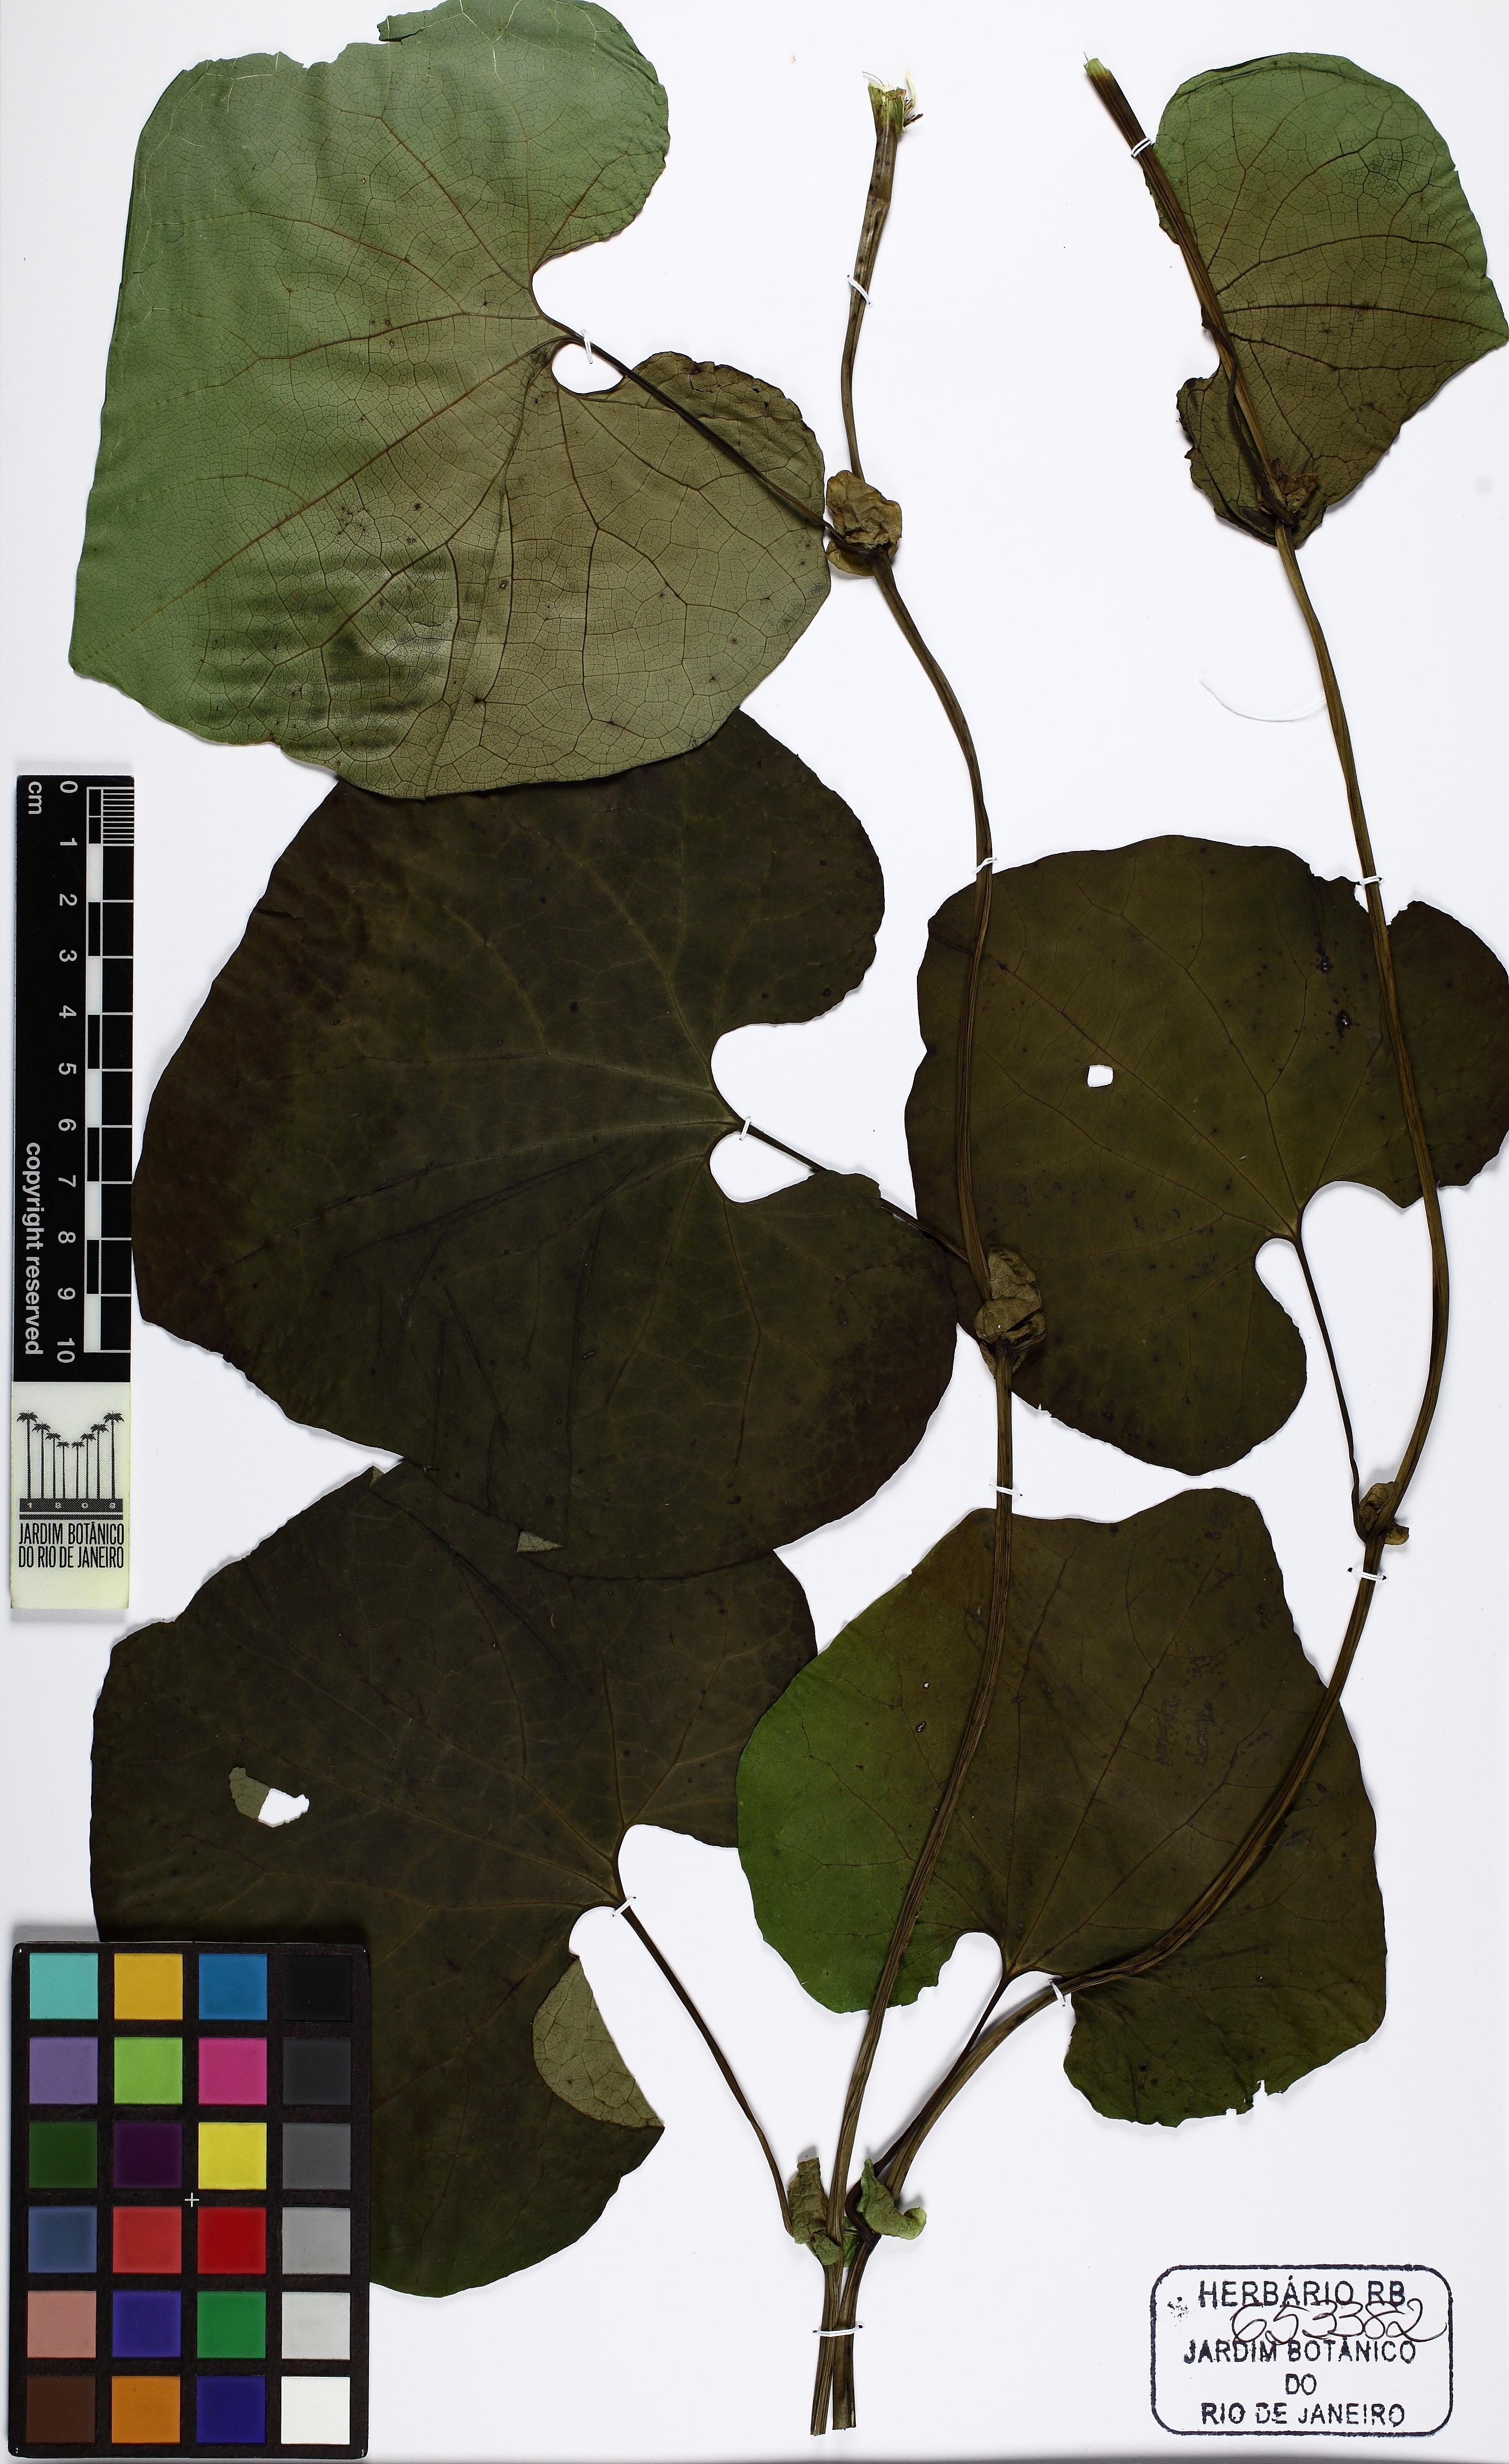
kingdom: Plantae
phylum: Tracheophyta
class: Magnoliopsida
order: Piperales
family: Aristolochiaceae
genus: Aristolochia
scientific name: Aristolochia
